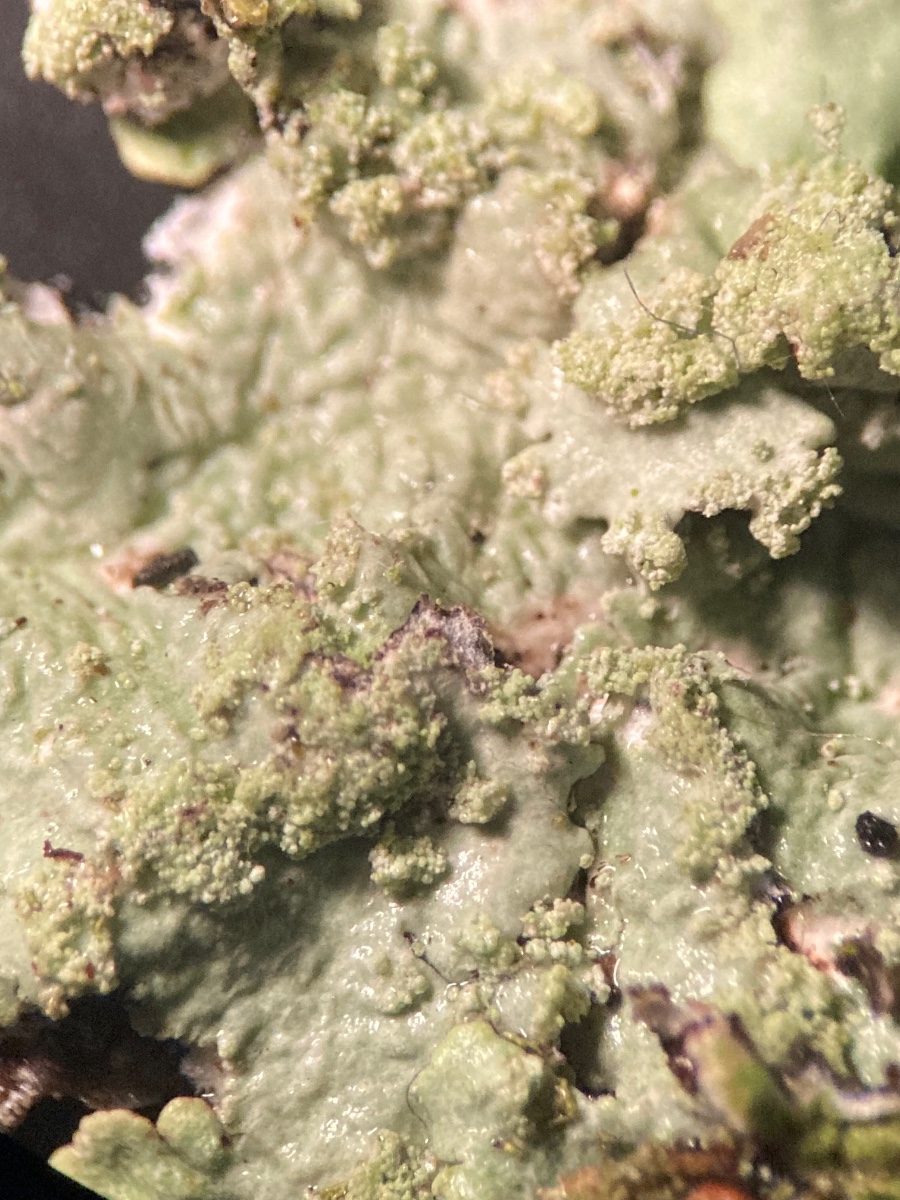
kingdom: Fungi
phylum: Ascomycota
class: Lecanoromycetes
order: Lecanorales
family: Parmeliaceae
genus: Flavoparmelia
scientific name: Flavoparmelia caperata
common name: gulgrøn skållav
